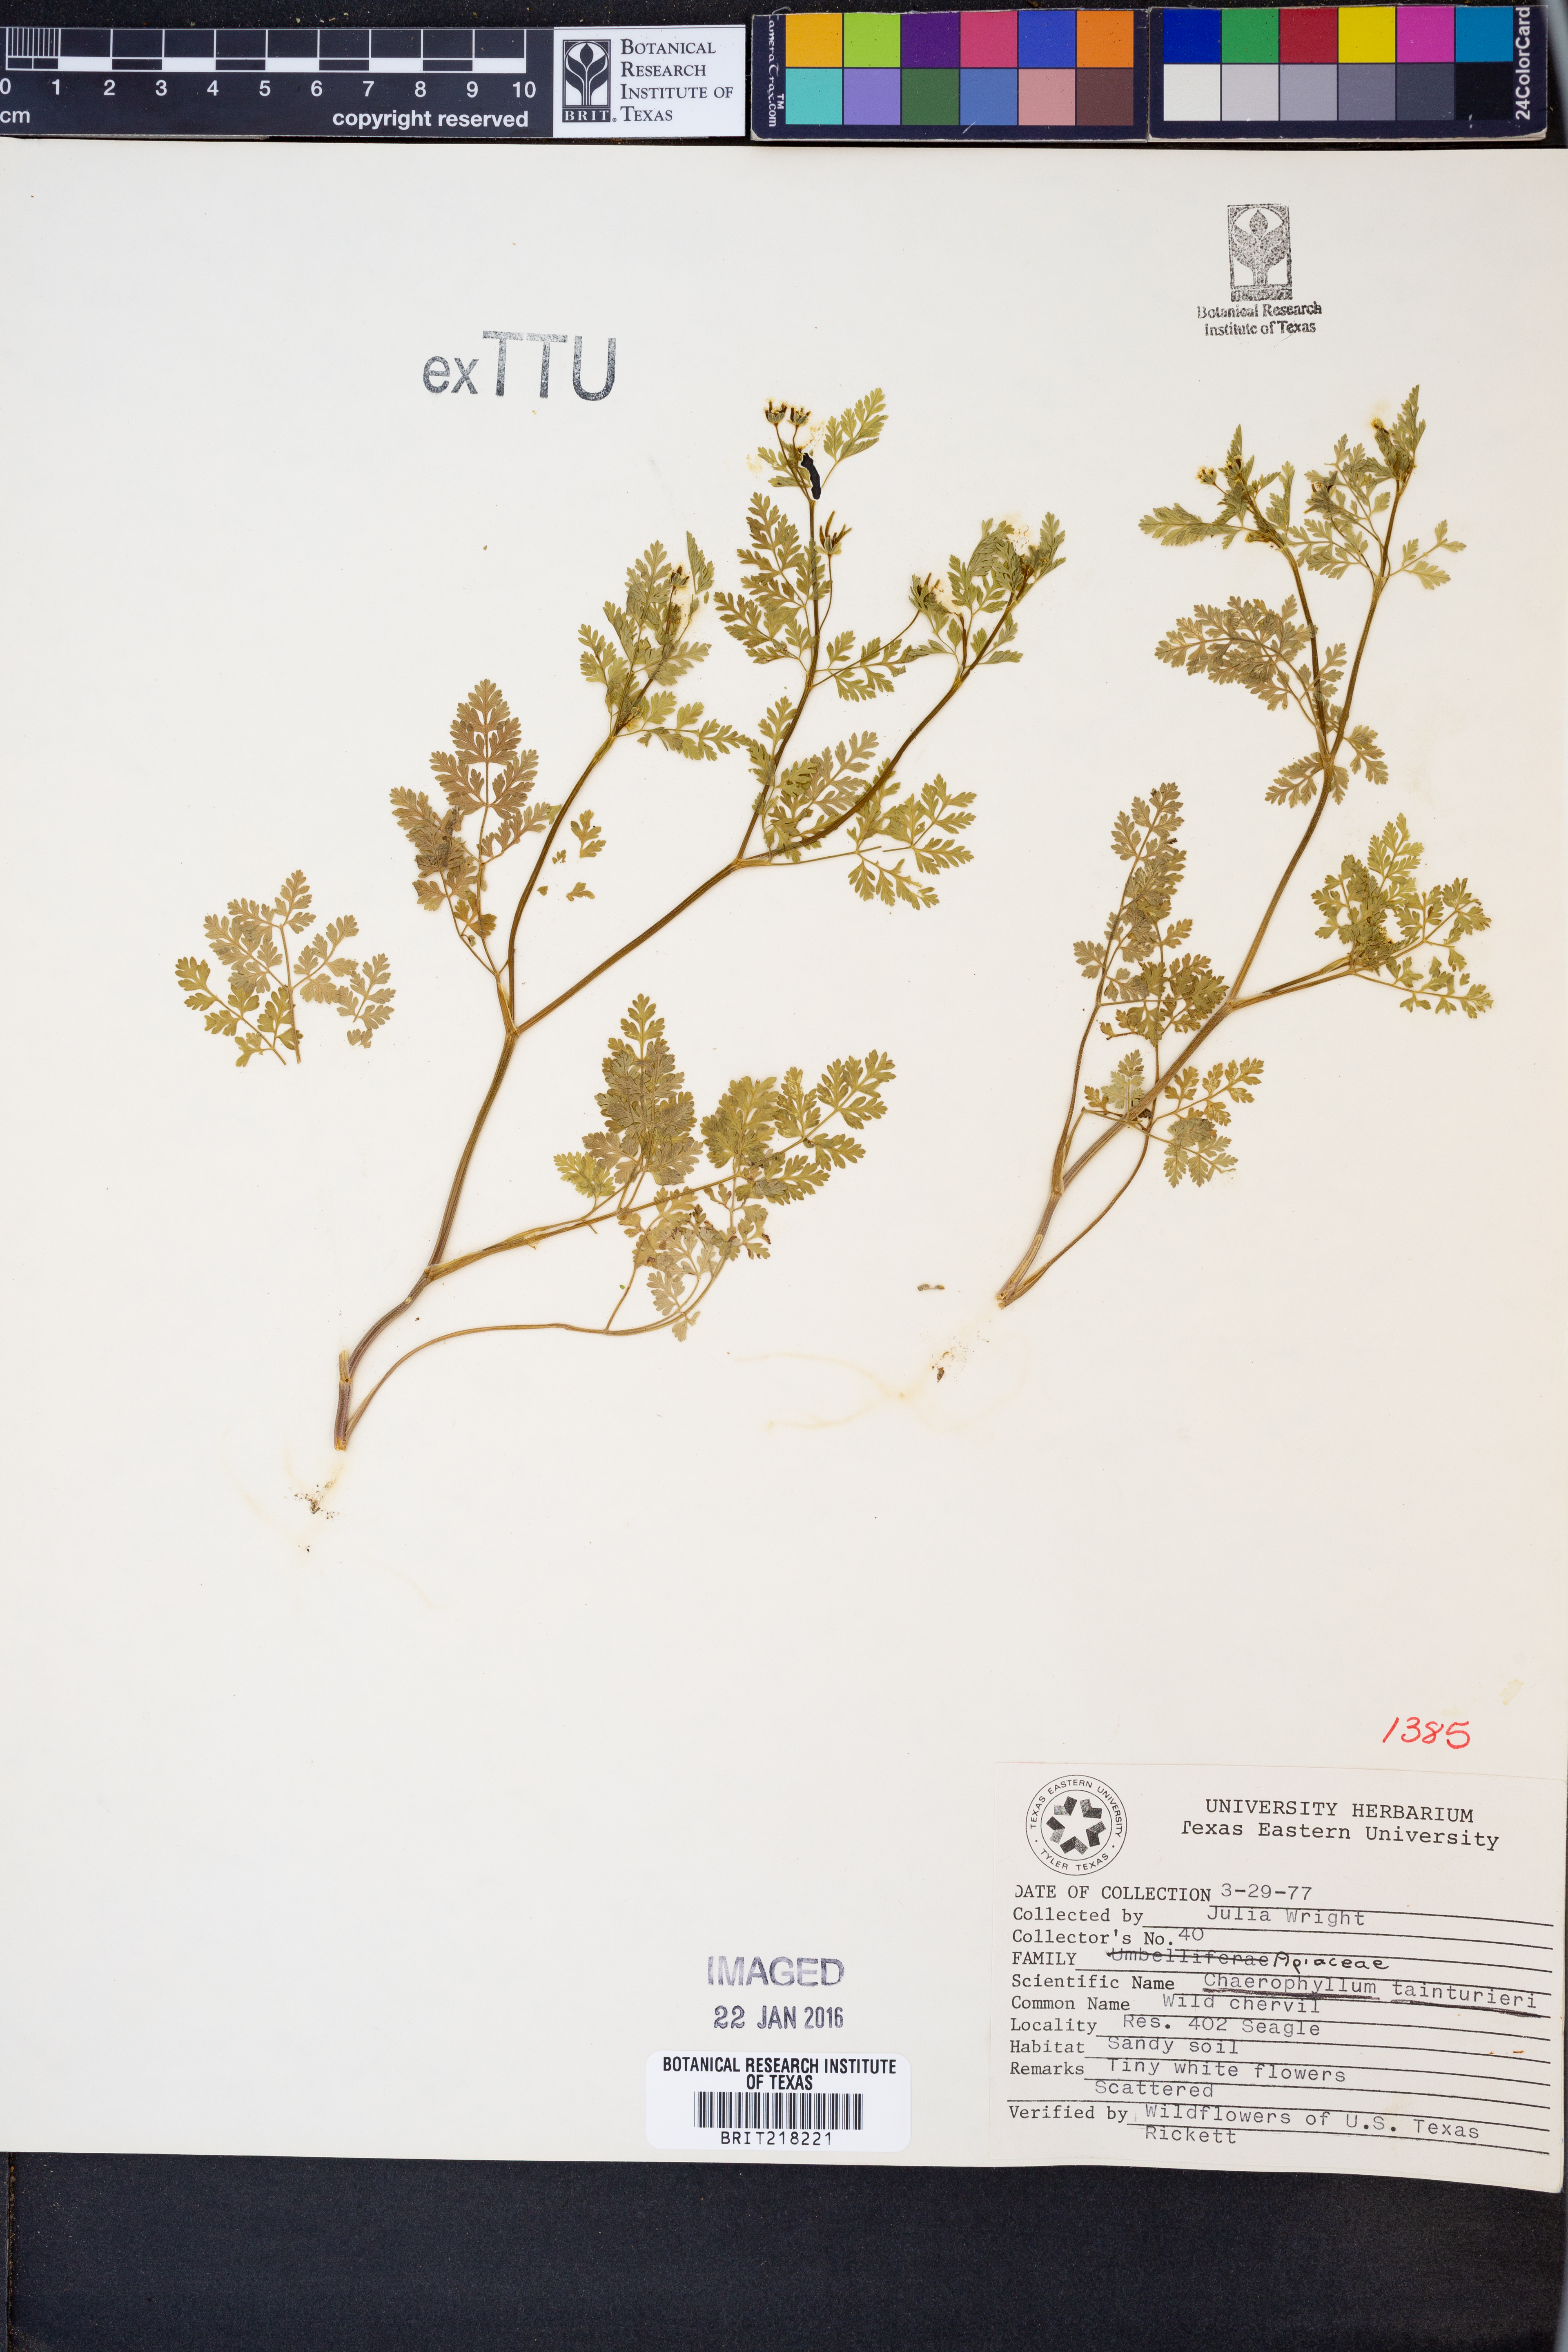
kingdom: Plantae
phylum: Tracheophyta
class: Magnoliopsida
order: Apiales
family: Apiaceae
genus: Chaerophyllum
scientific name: Chaerophyllum tainturieri
